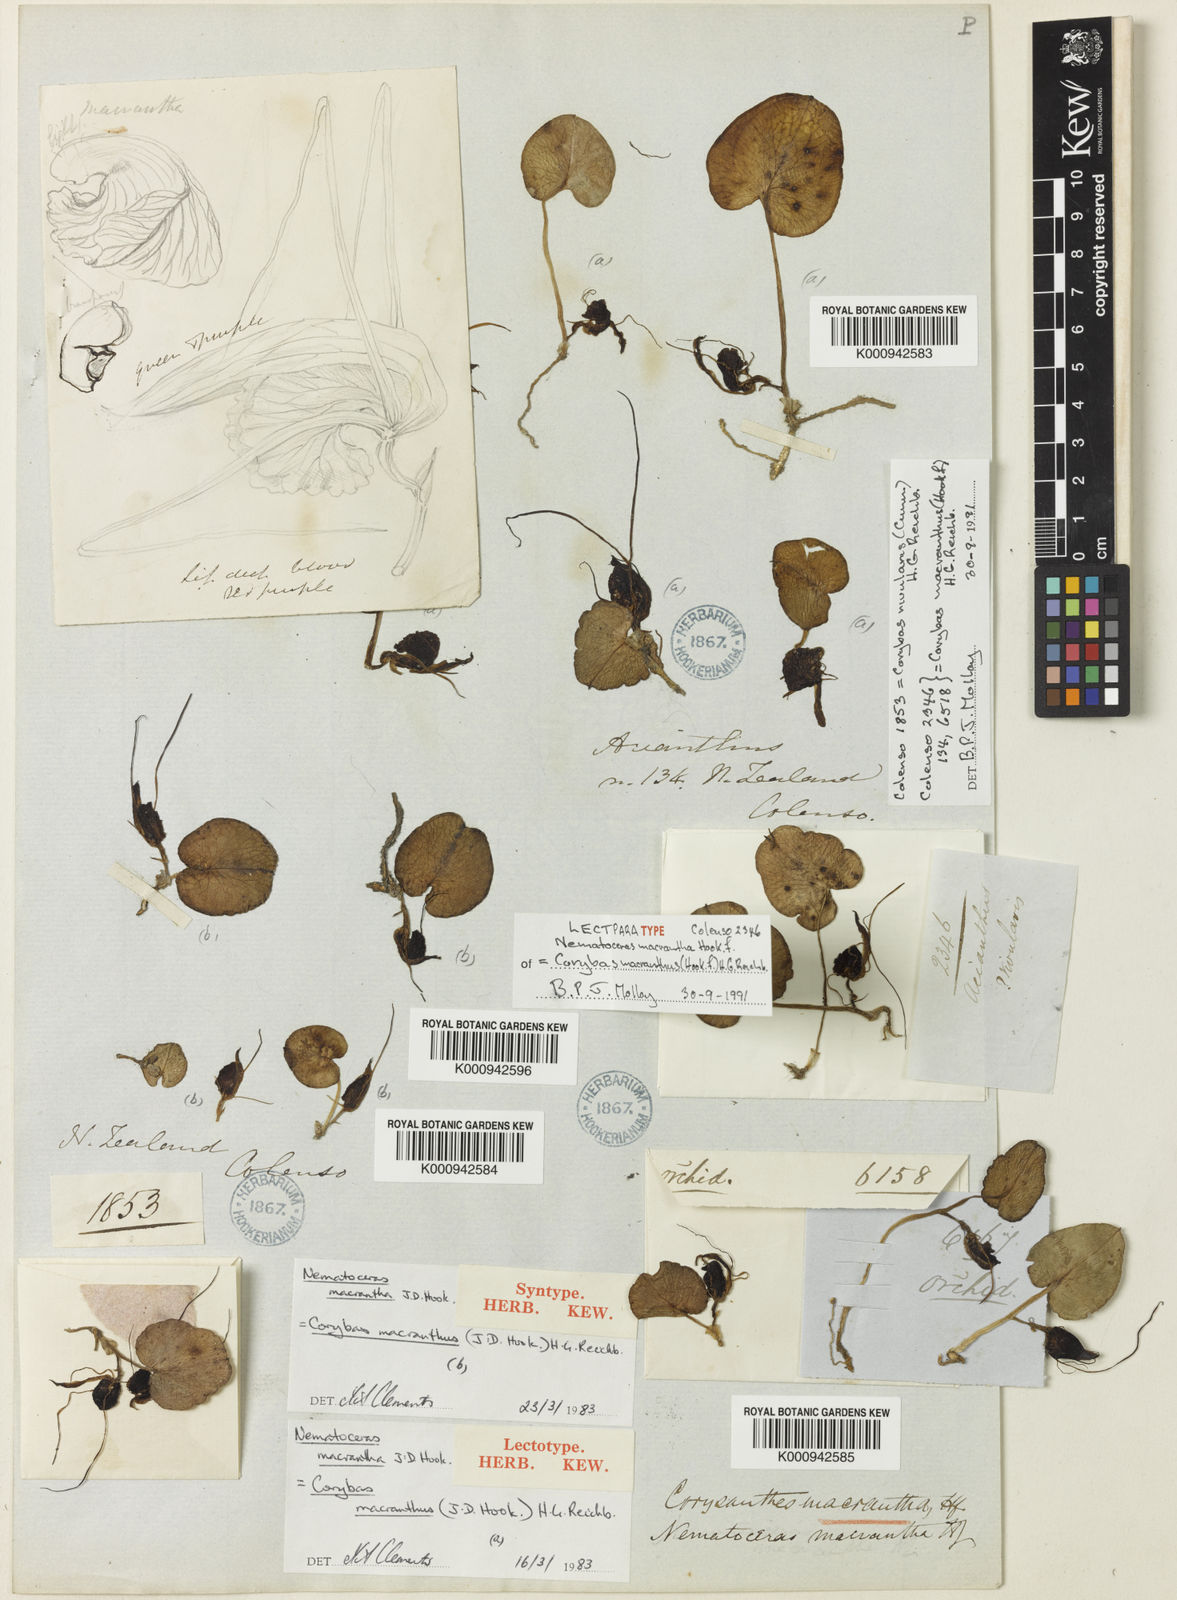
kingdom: Plantae
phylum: Tracheophyta
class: Liliopsida
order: Asparagales
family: Orchidaceae
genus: Corybas
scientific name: Corybas macranthus
